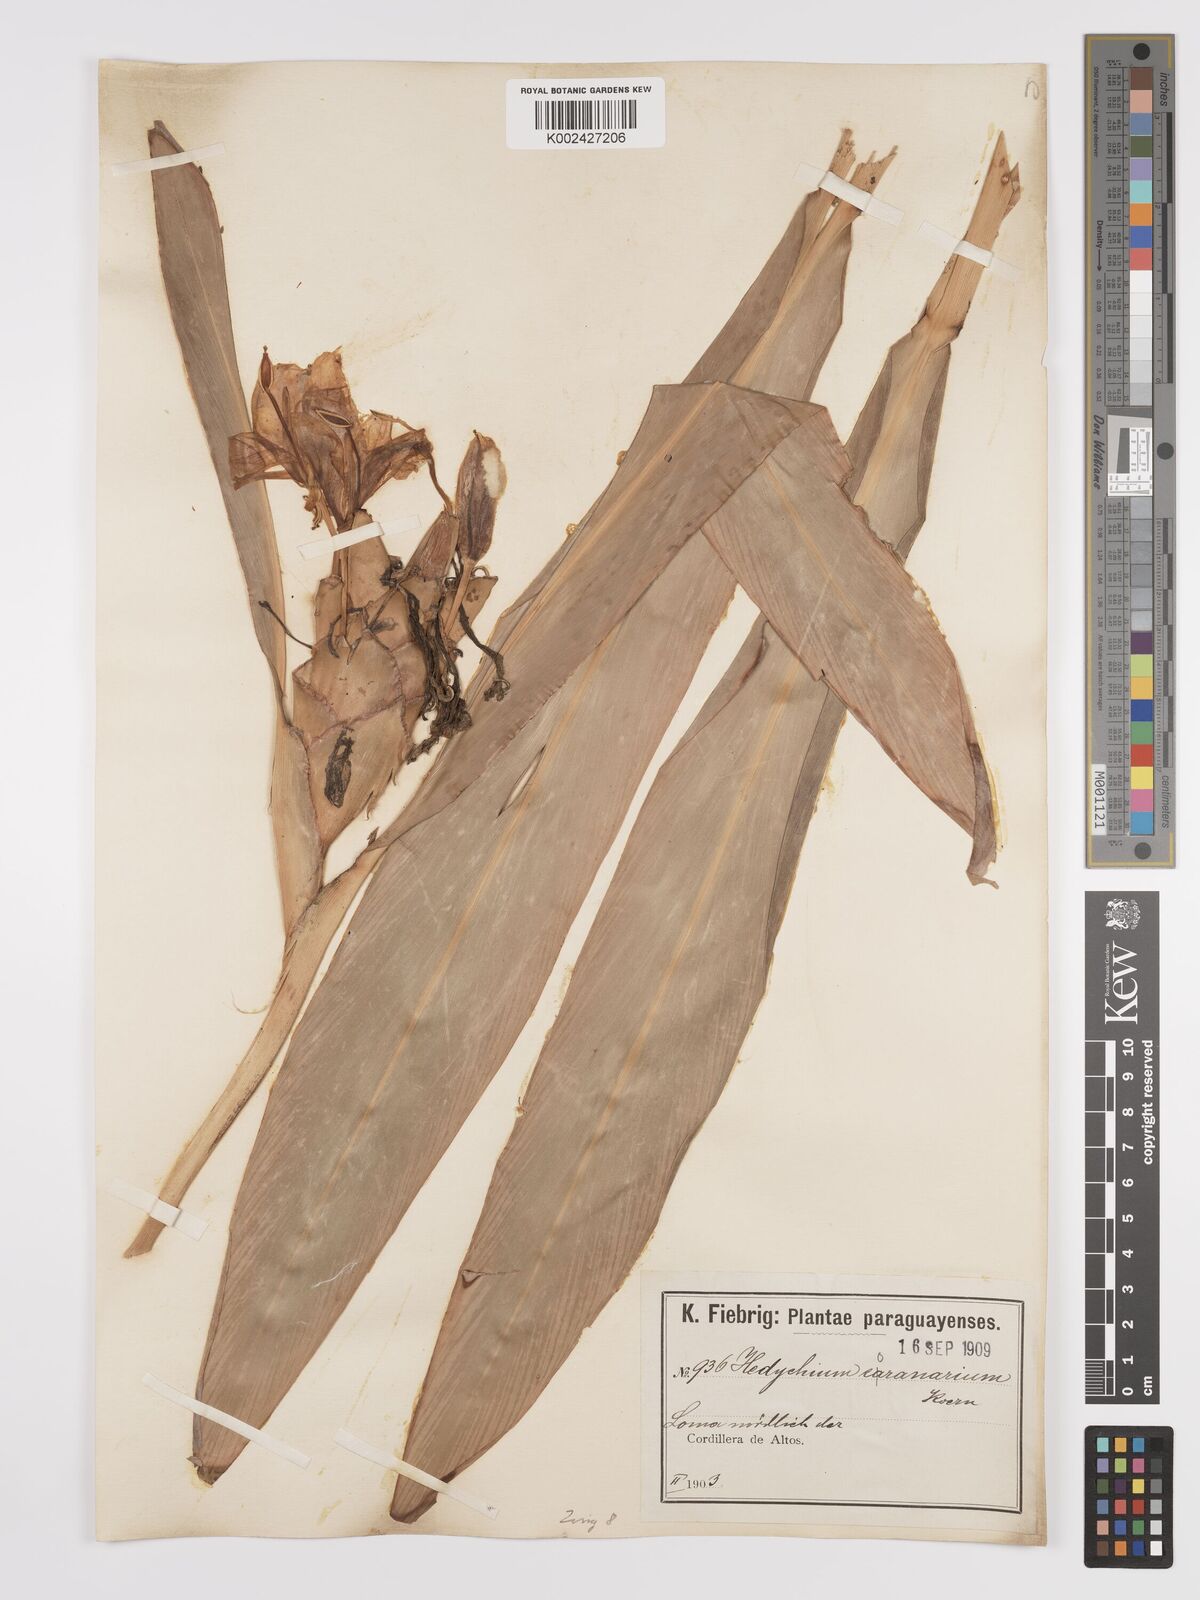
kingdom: Plantae
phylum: Tracheophyta
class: Liliopsida
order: Zingiberales
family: Zingiberaceae
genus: Hedychium
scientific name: Hedychium coronarium
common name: White garland-lily
